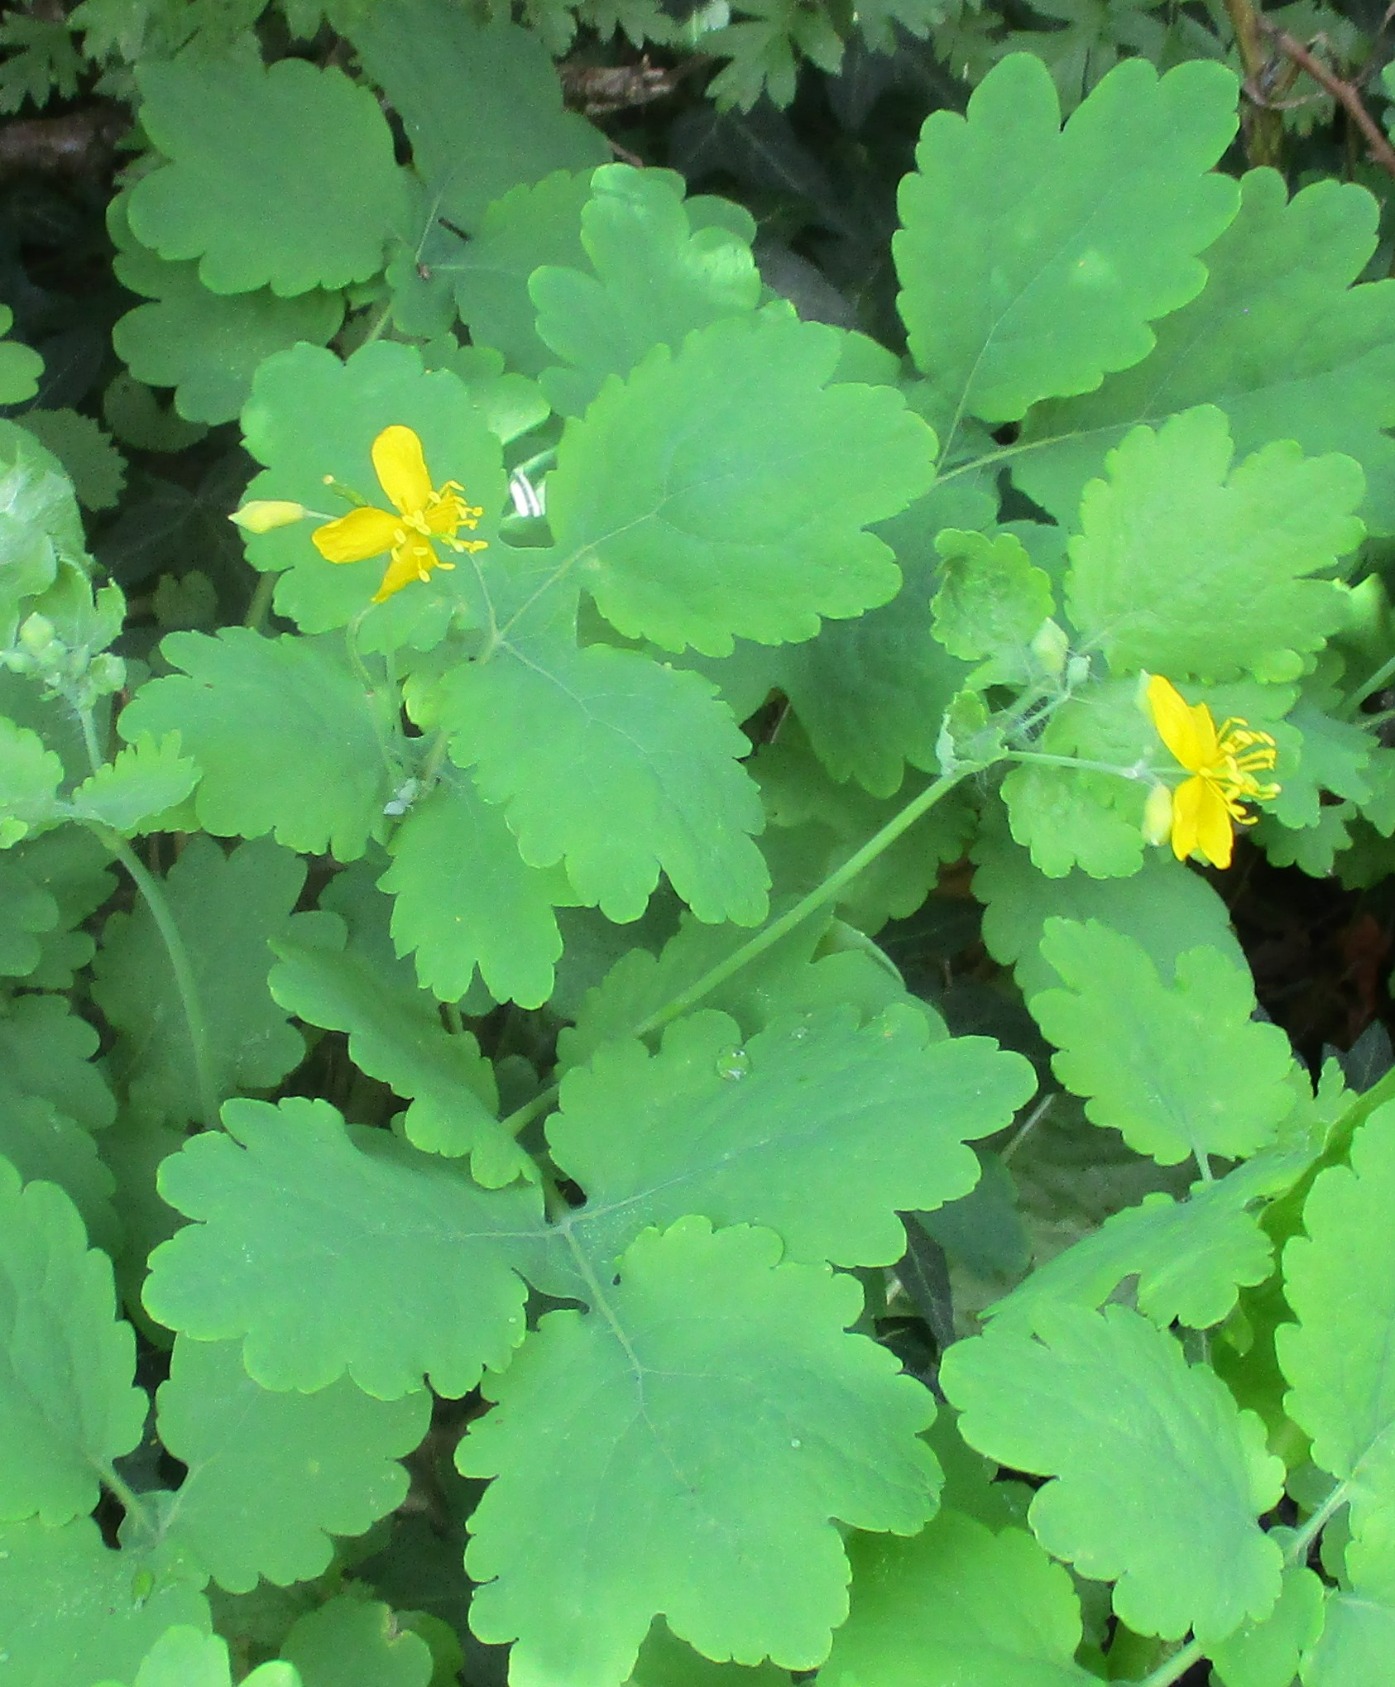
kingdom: Plantae
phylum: Tracheophyta
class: Magnoliopsida
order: Ranunculales
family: Papaveraceae
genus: Chelidonium
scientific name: Chelidonium majus
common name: Svaleurt
